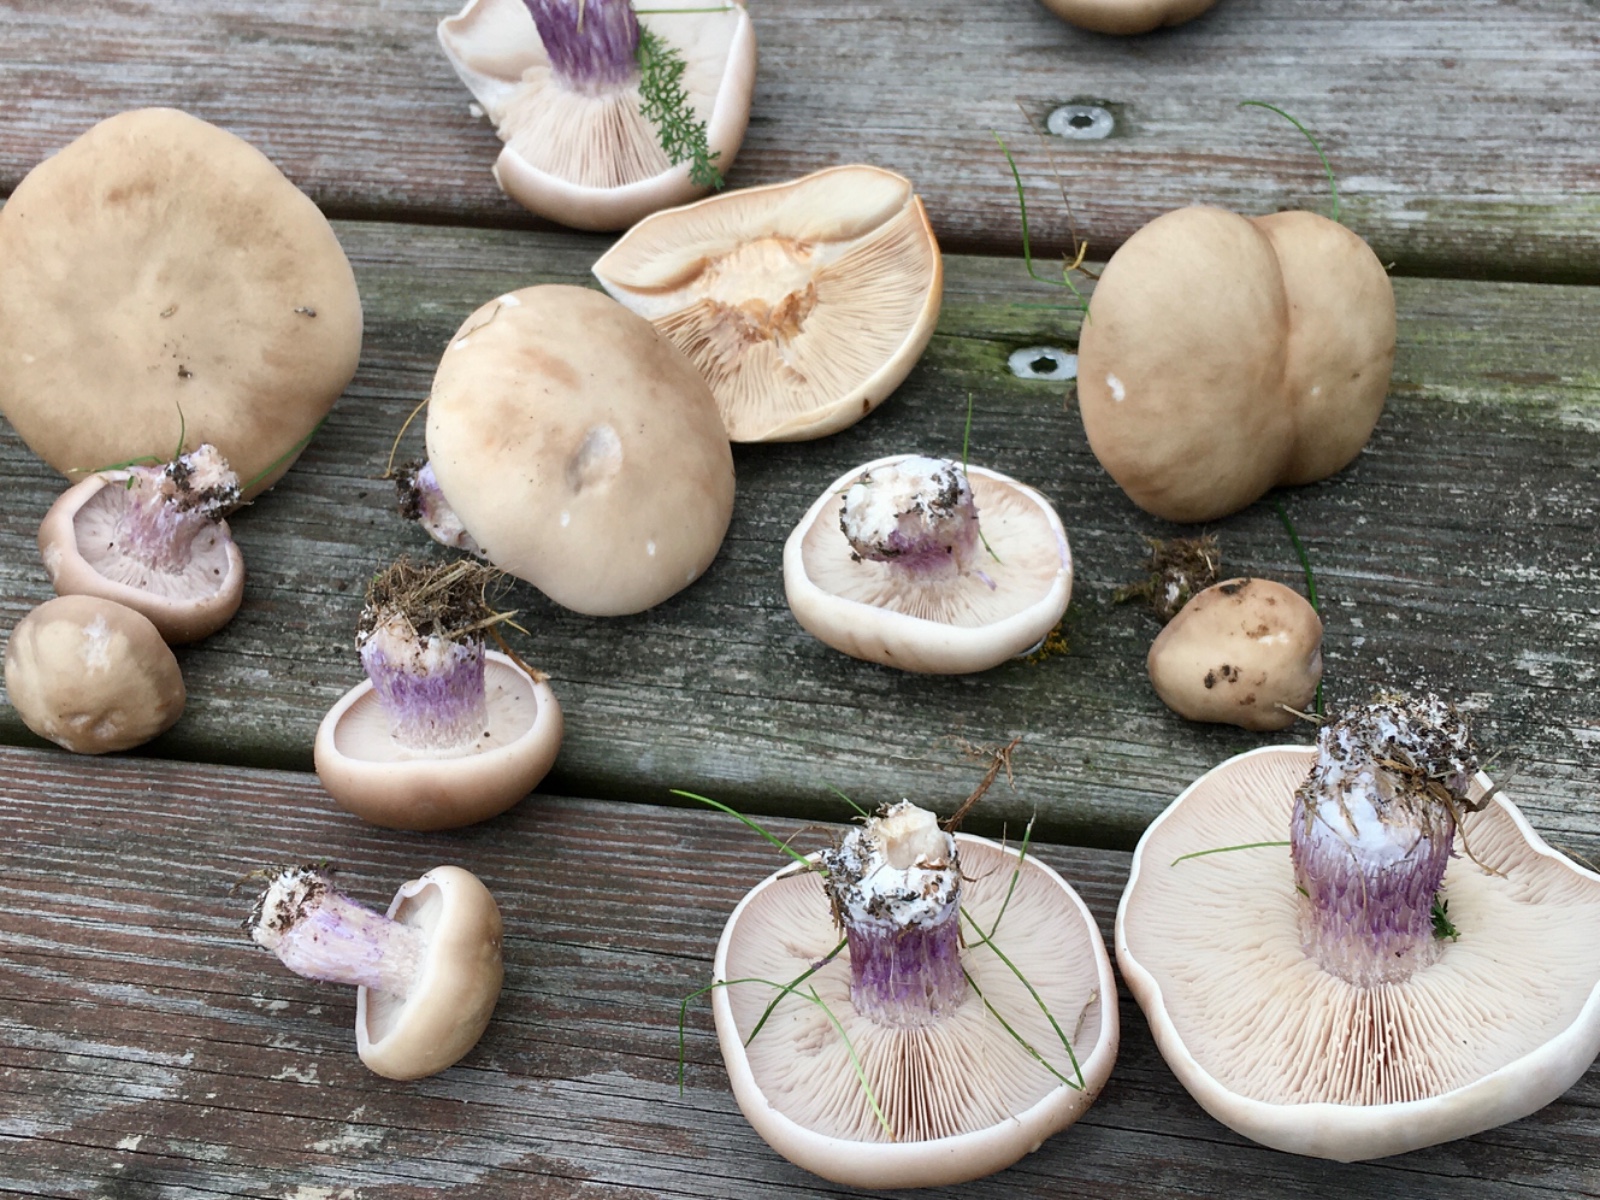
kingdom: Fungi
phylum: Basidiomycota
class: Agaricomycetes
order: Agaricales
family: Tricholomataceae
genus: Lepista
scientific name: Lepista personata
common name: bleg hekseringshat
